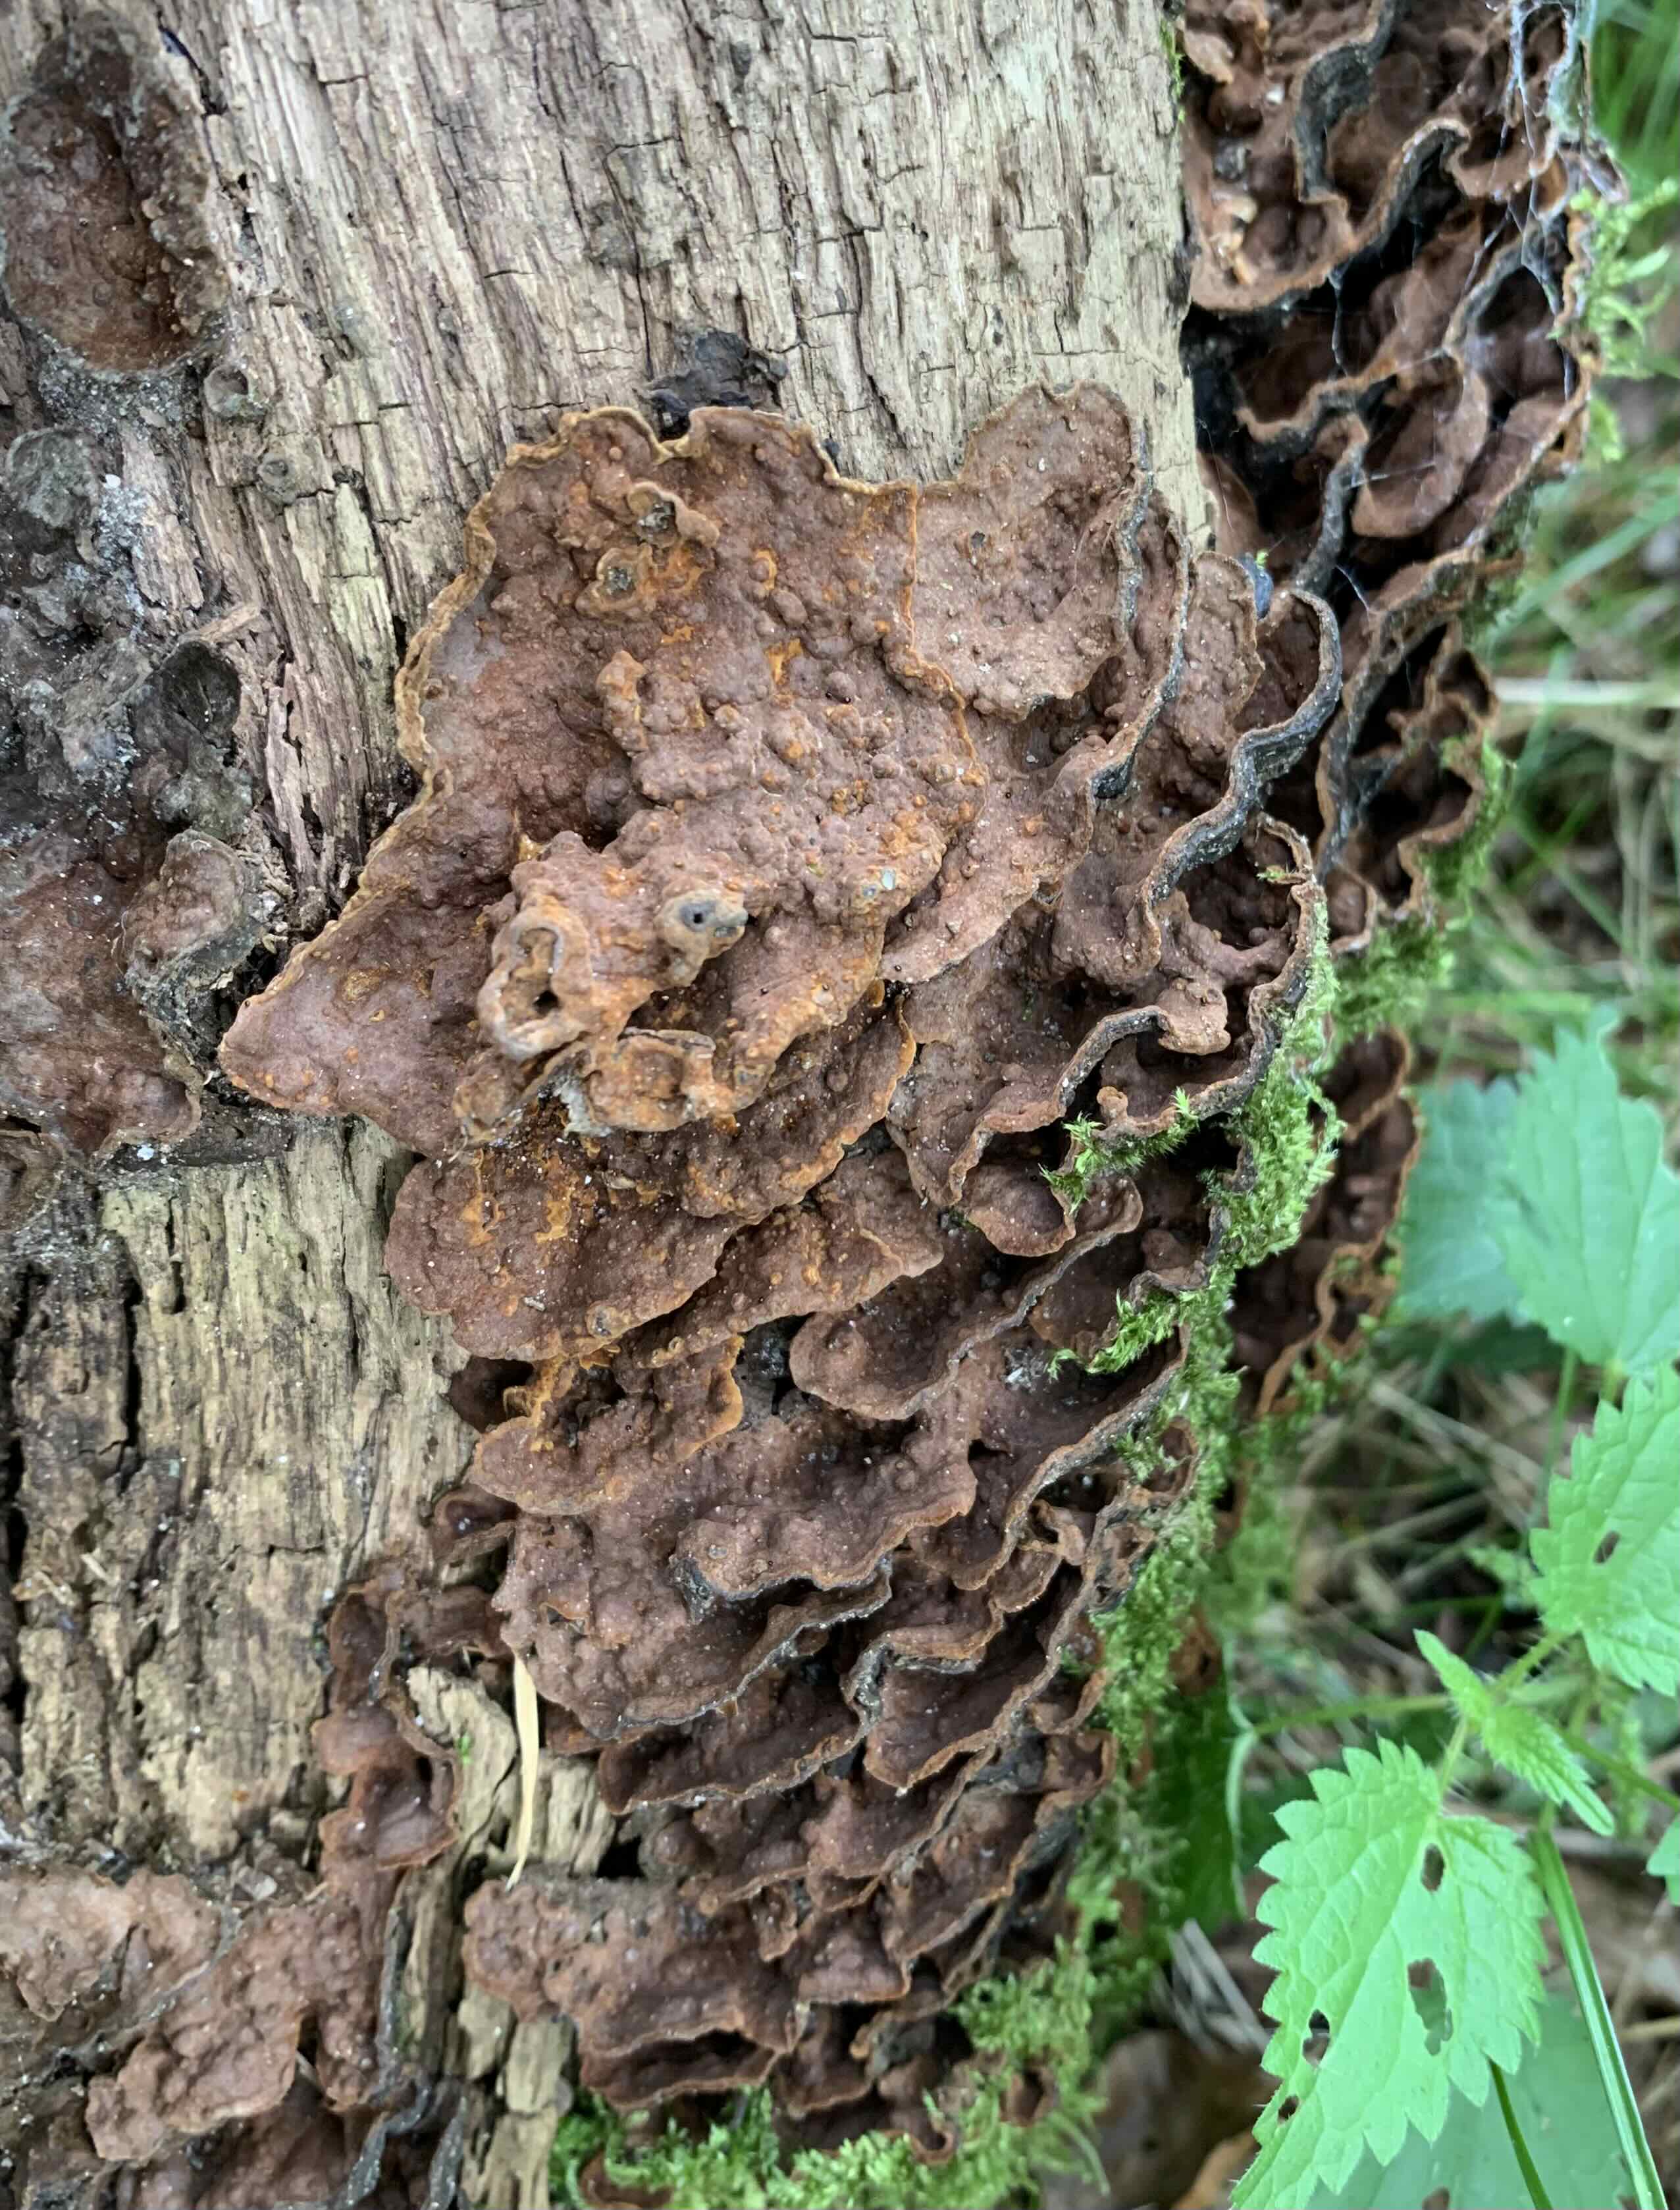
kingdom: Fungi
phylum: Basidiomycota
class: Agaricomycetes
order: Hymenochaetales
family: Hymenochaetaceae
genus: Hymenochaete
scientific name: Hymenochaete rubiginosa
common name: stiv ruslædersvamp
